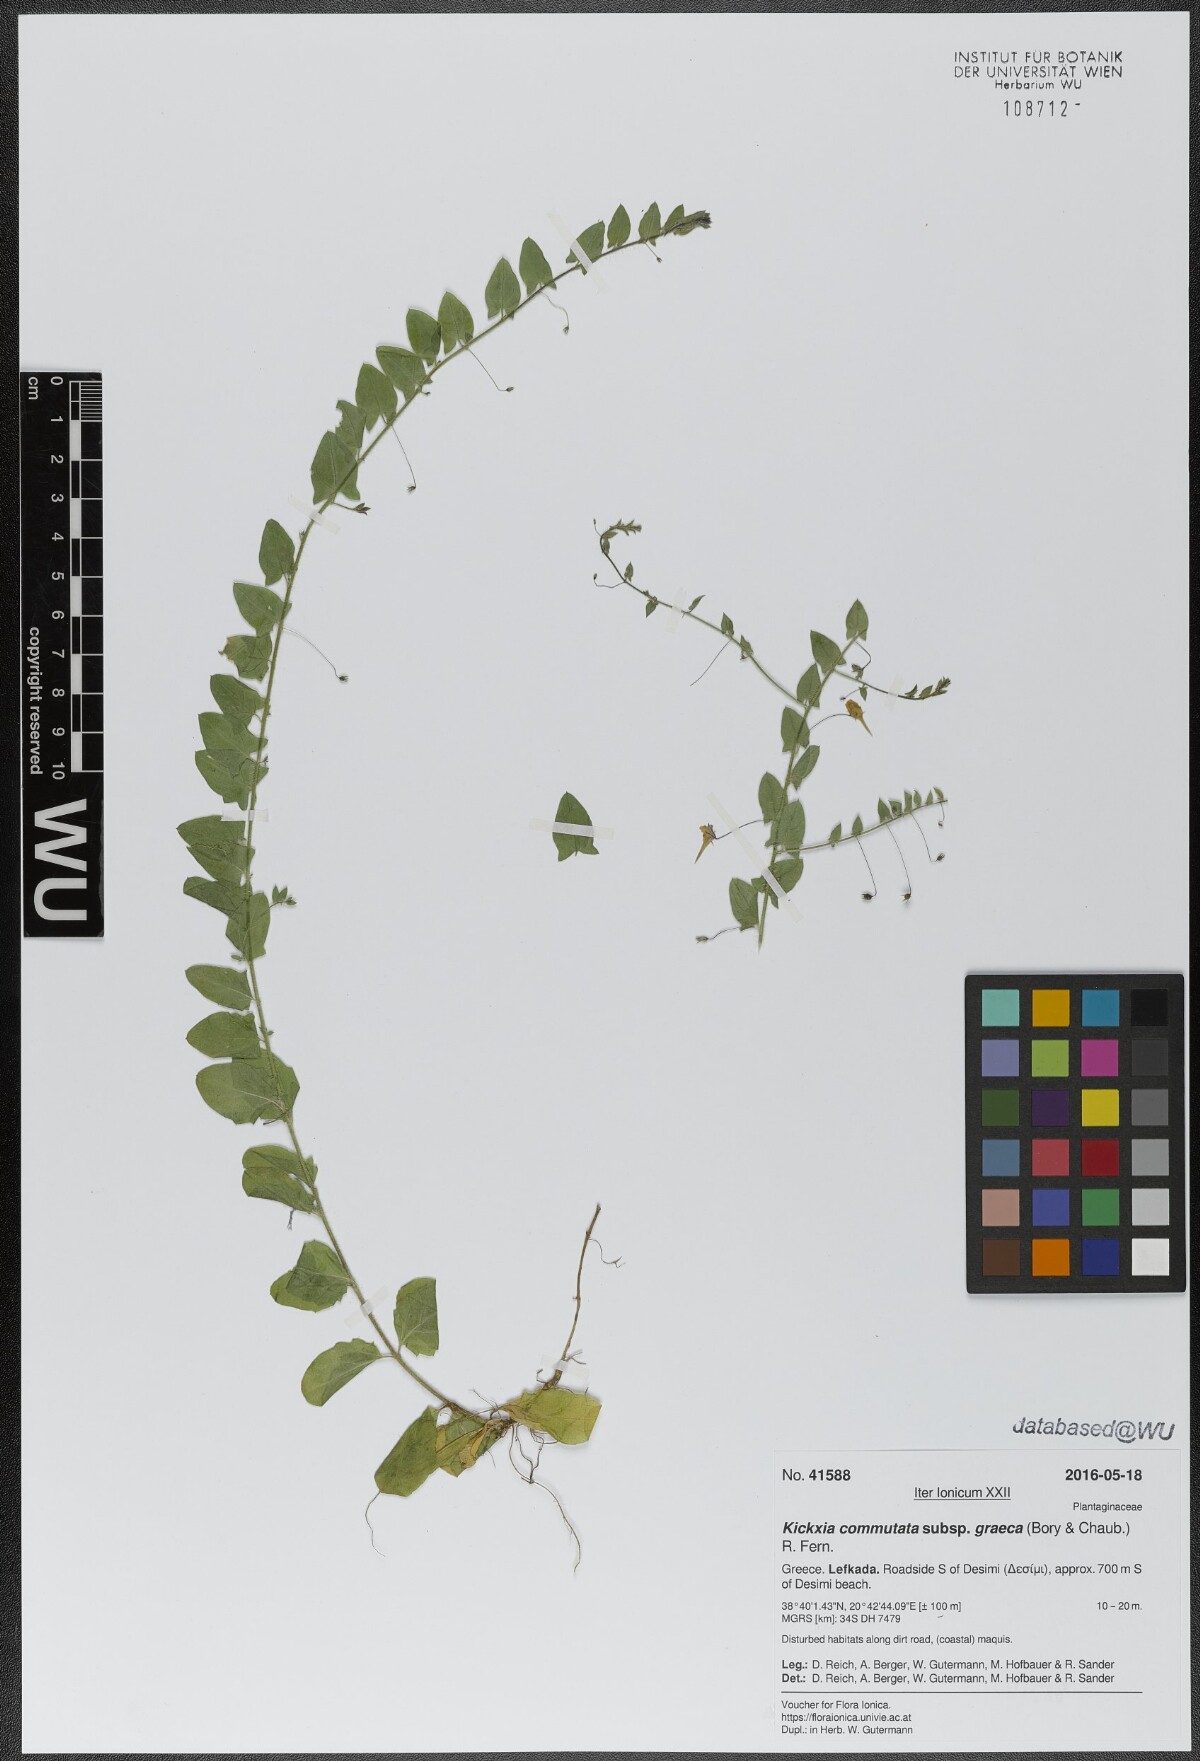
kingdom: Plantae
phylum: Tracheophyta
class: Magnoliopsida
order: Lamiales
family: Plantaginaceae
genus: Kickxia
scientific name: Kickxia commutata
